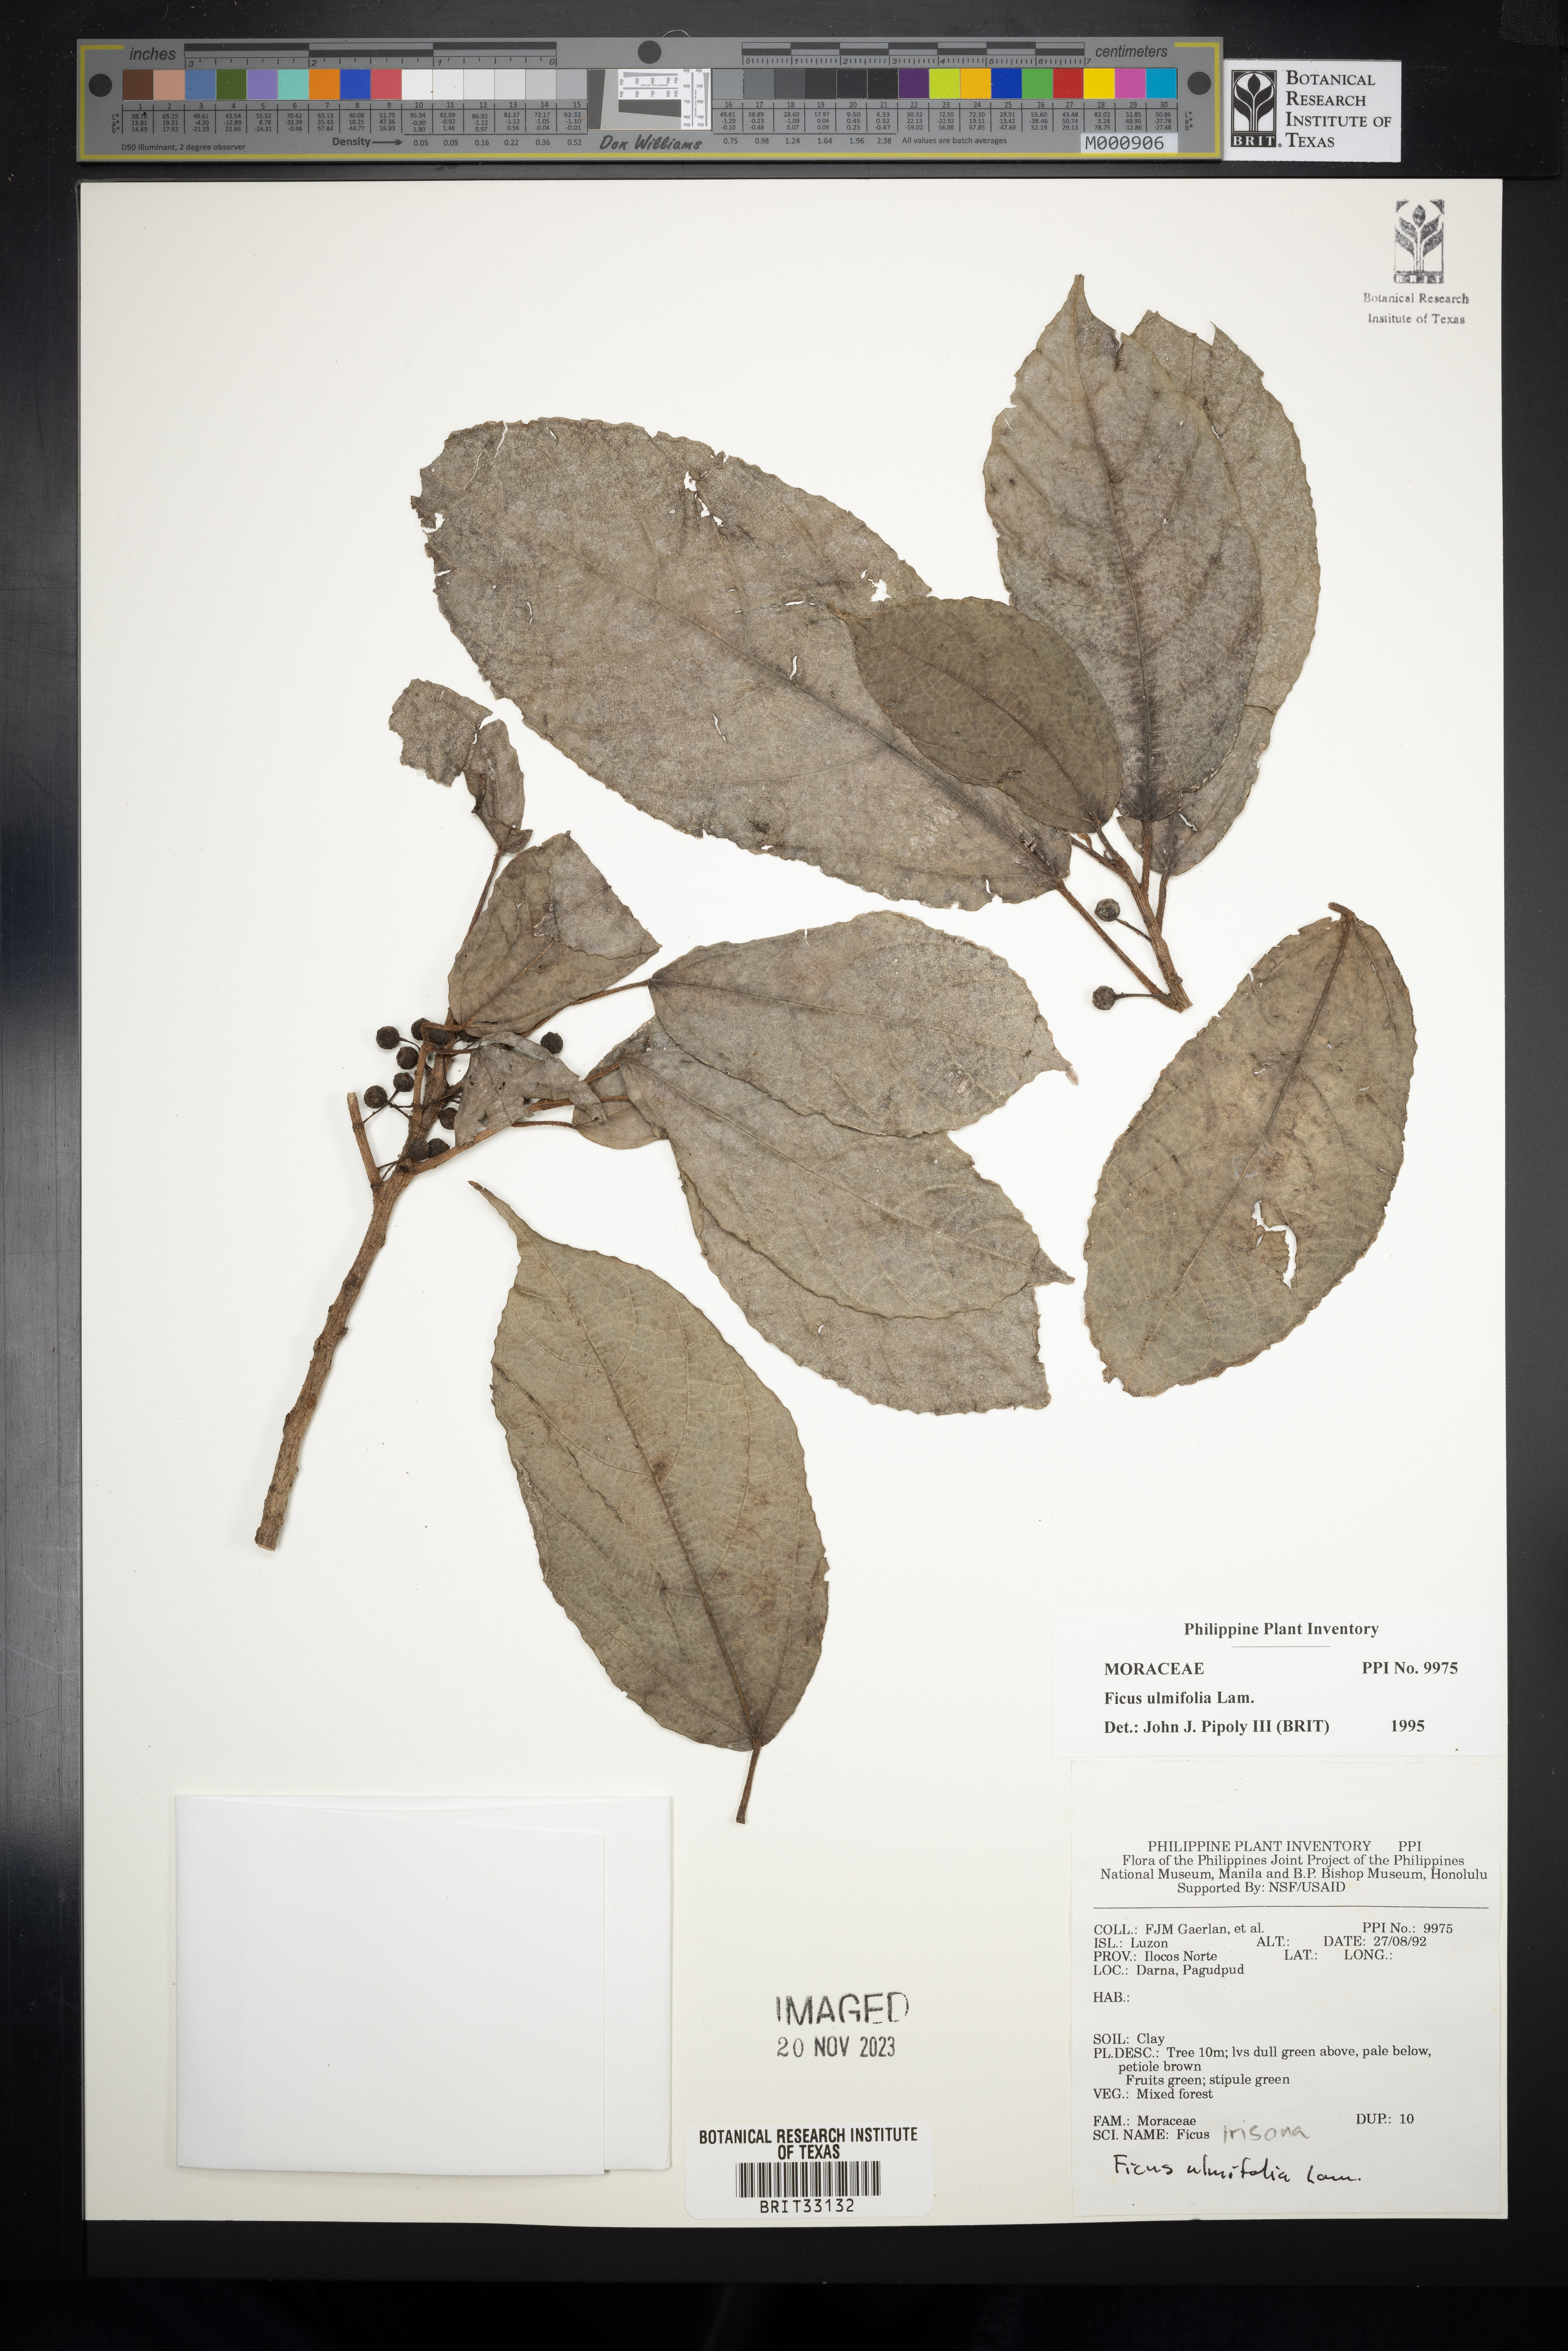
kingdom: Plantae
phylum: Tracheophyta
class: Magnoliopsida
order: Rosales
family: Moraceae
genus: Ficus
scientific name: Ficus ulmifolia
